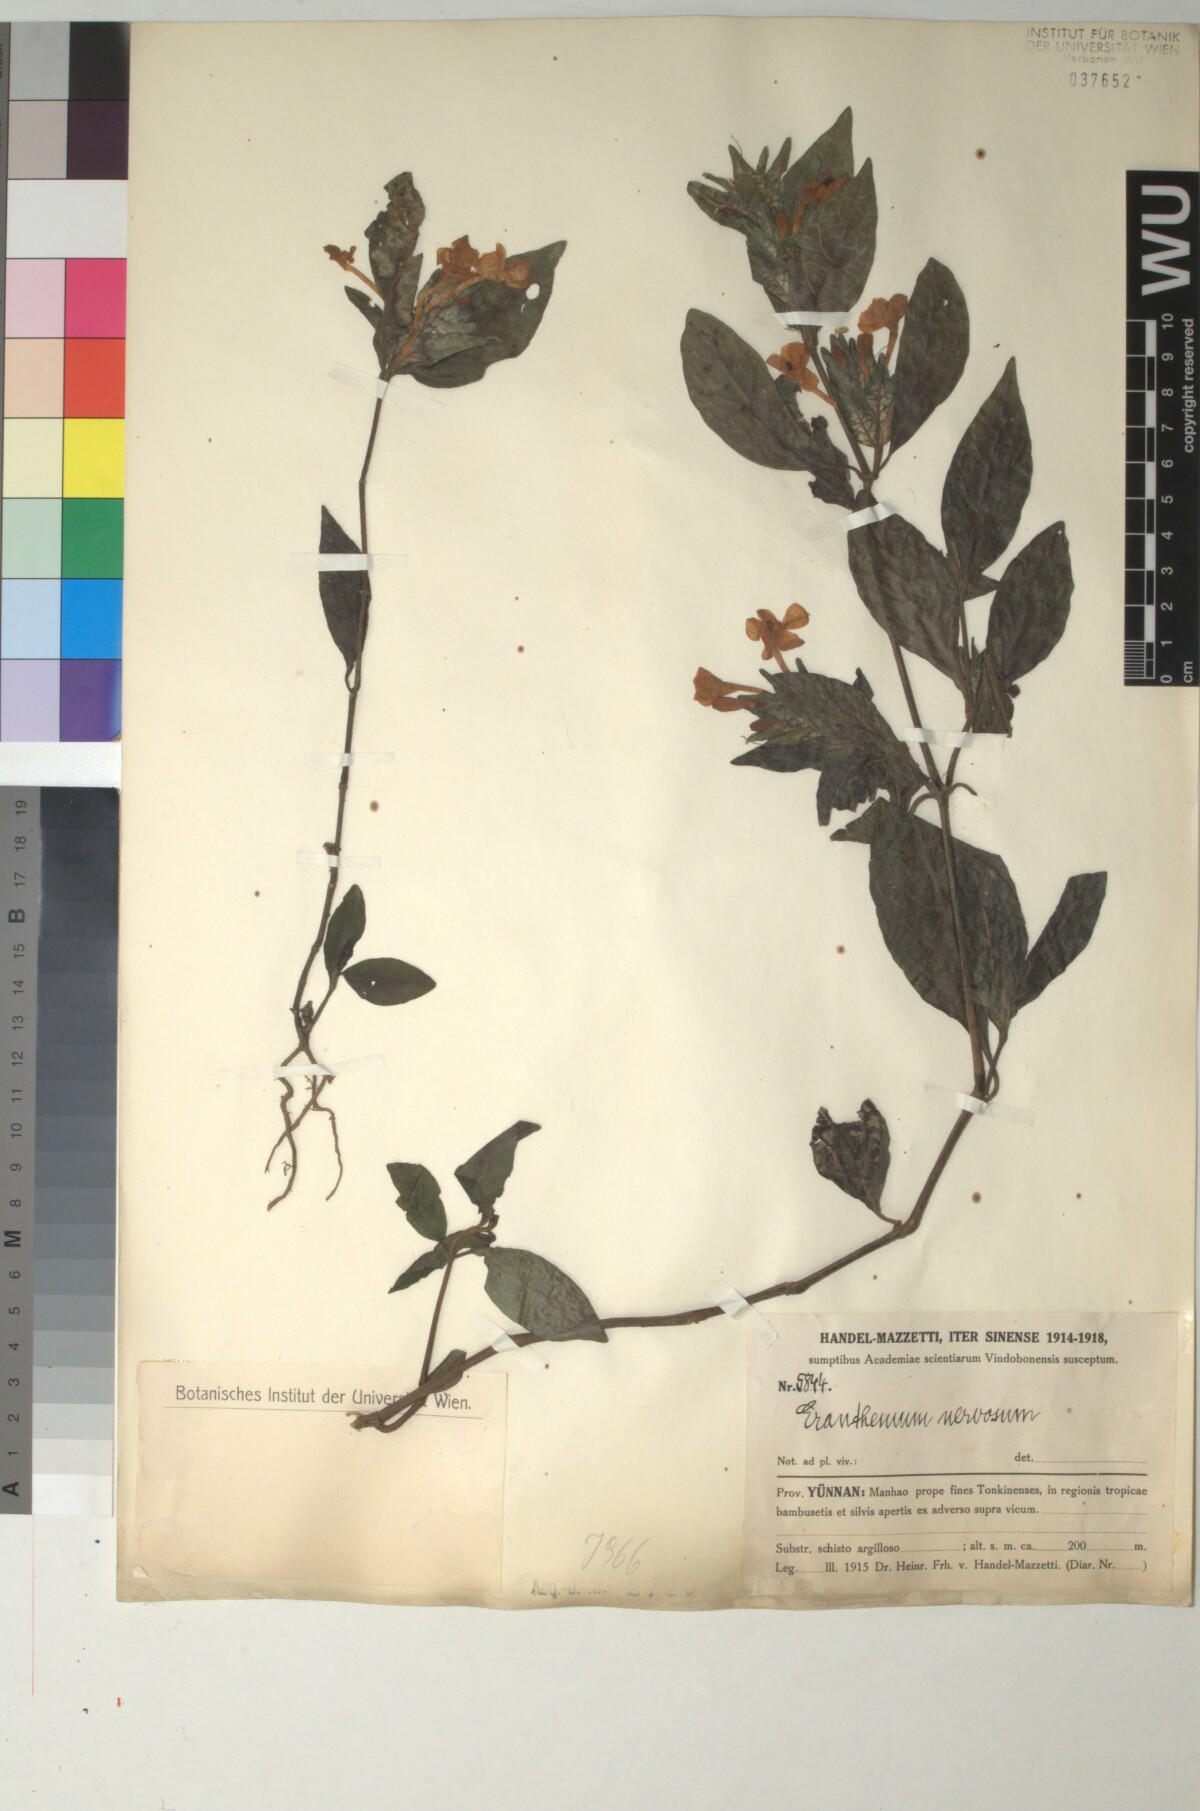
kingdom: Plantae
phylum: Tracheophyta
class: Magnoliopsida
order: Lamiales
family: Acanthaceae
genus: Eranthemum
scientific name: Eranthemum pulchellum
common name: Blue-sage
